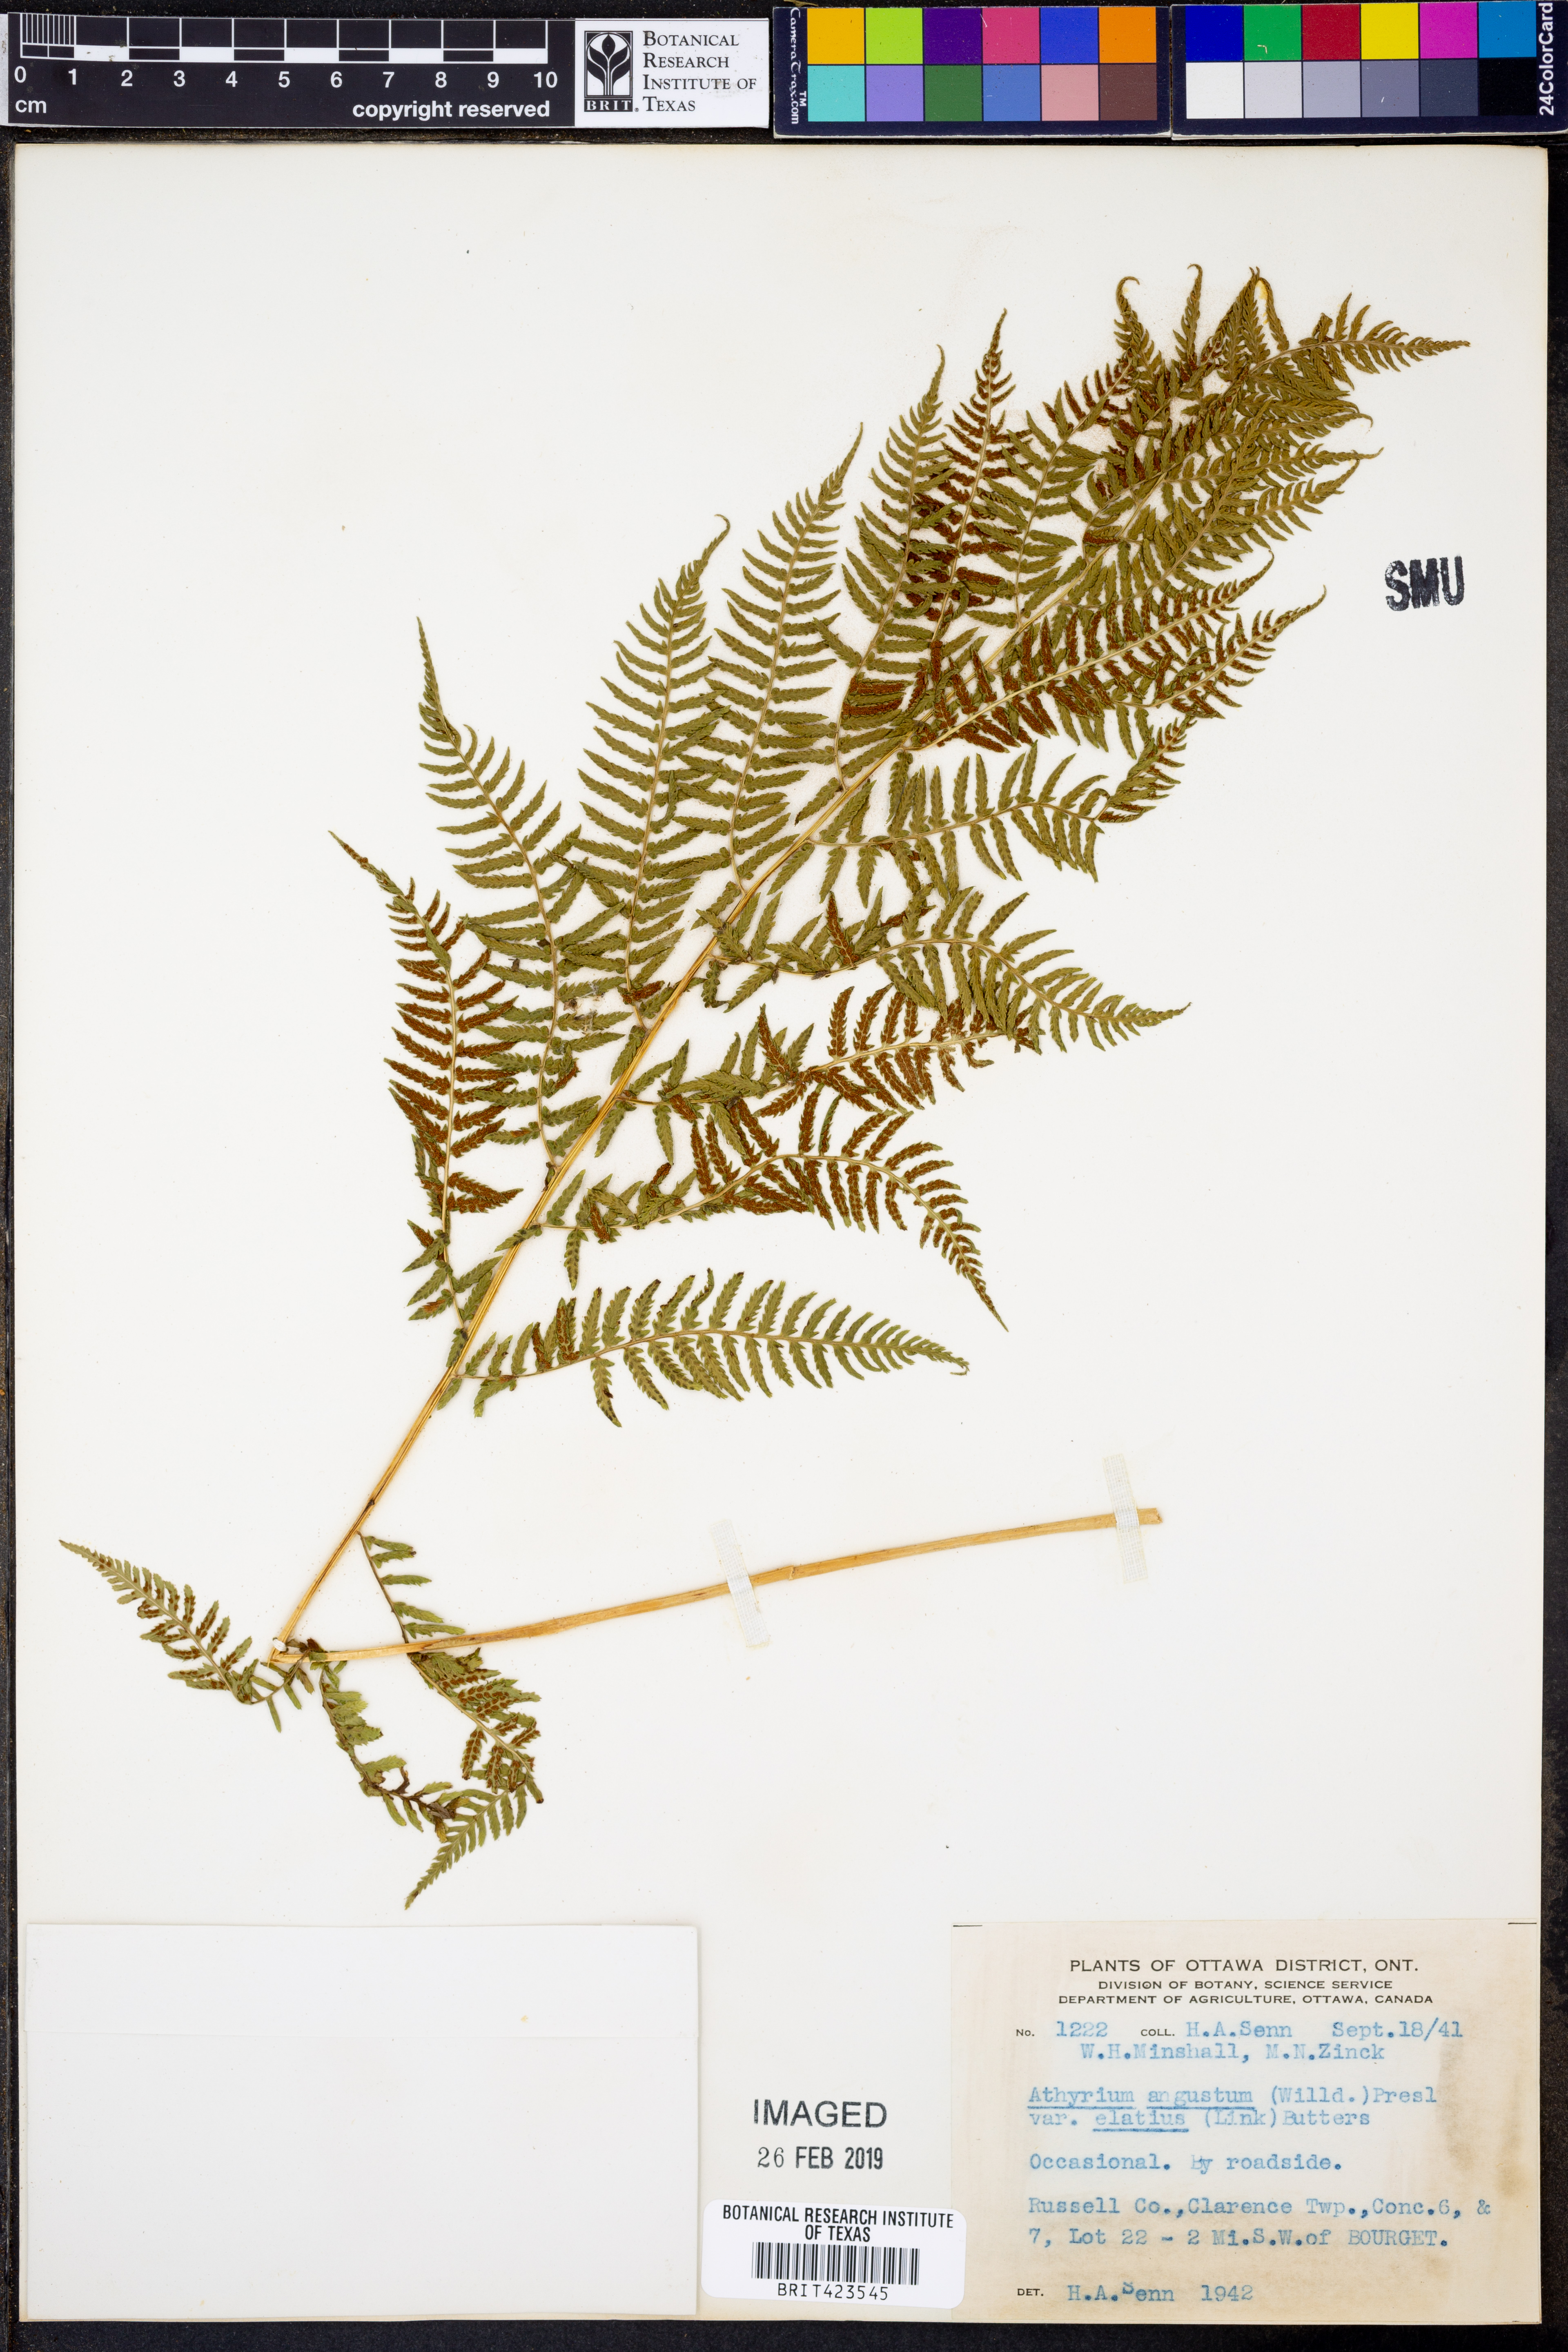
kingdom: Plantae
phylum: Tracheophyta
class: Polypodiopsida
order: Polypodiales
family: Athyriaceae
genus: Athyrium
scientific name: Athyrium cyclosorum
